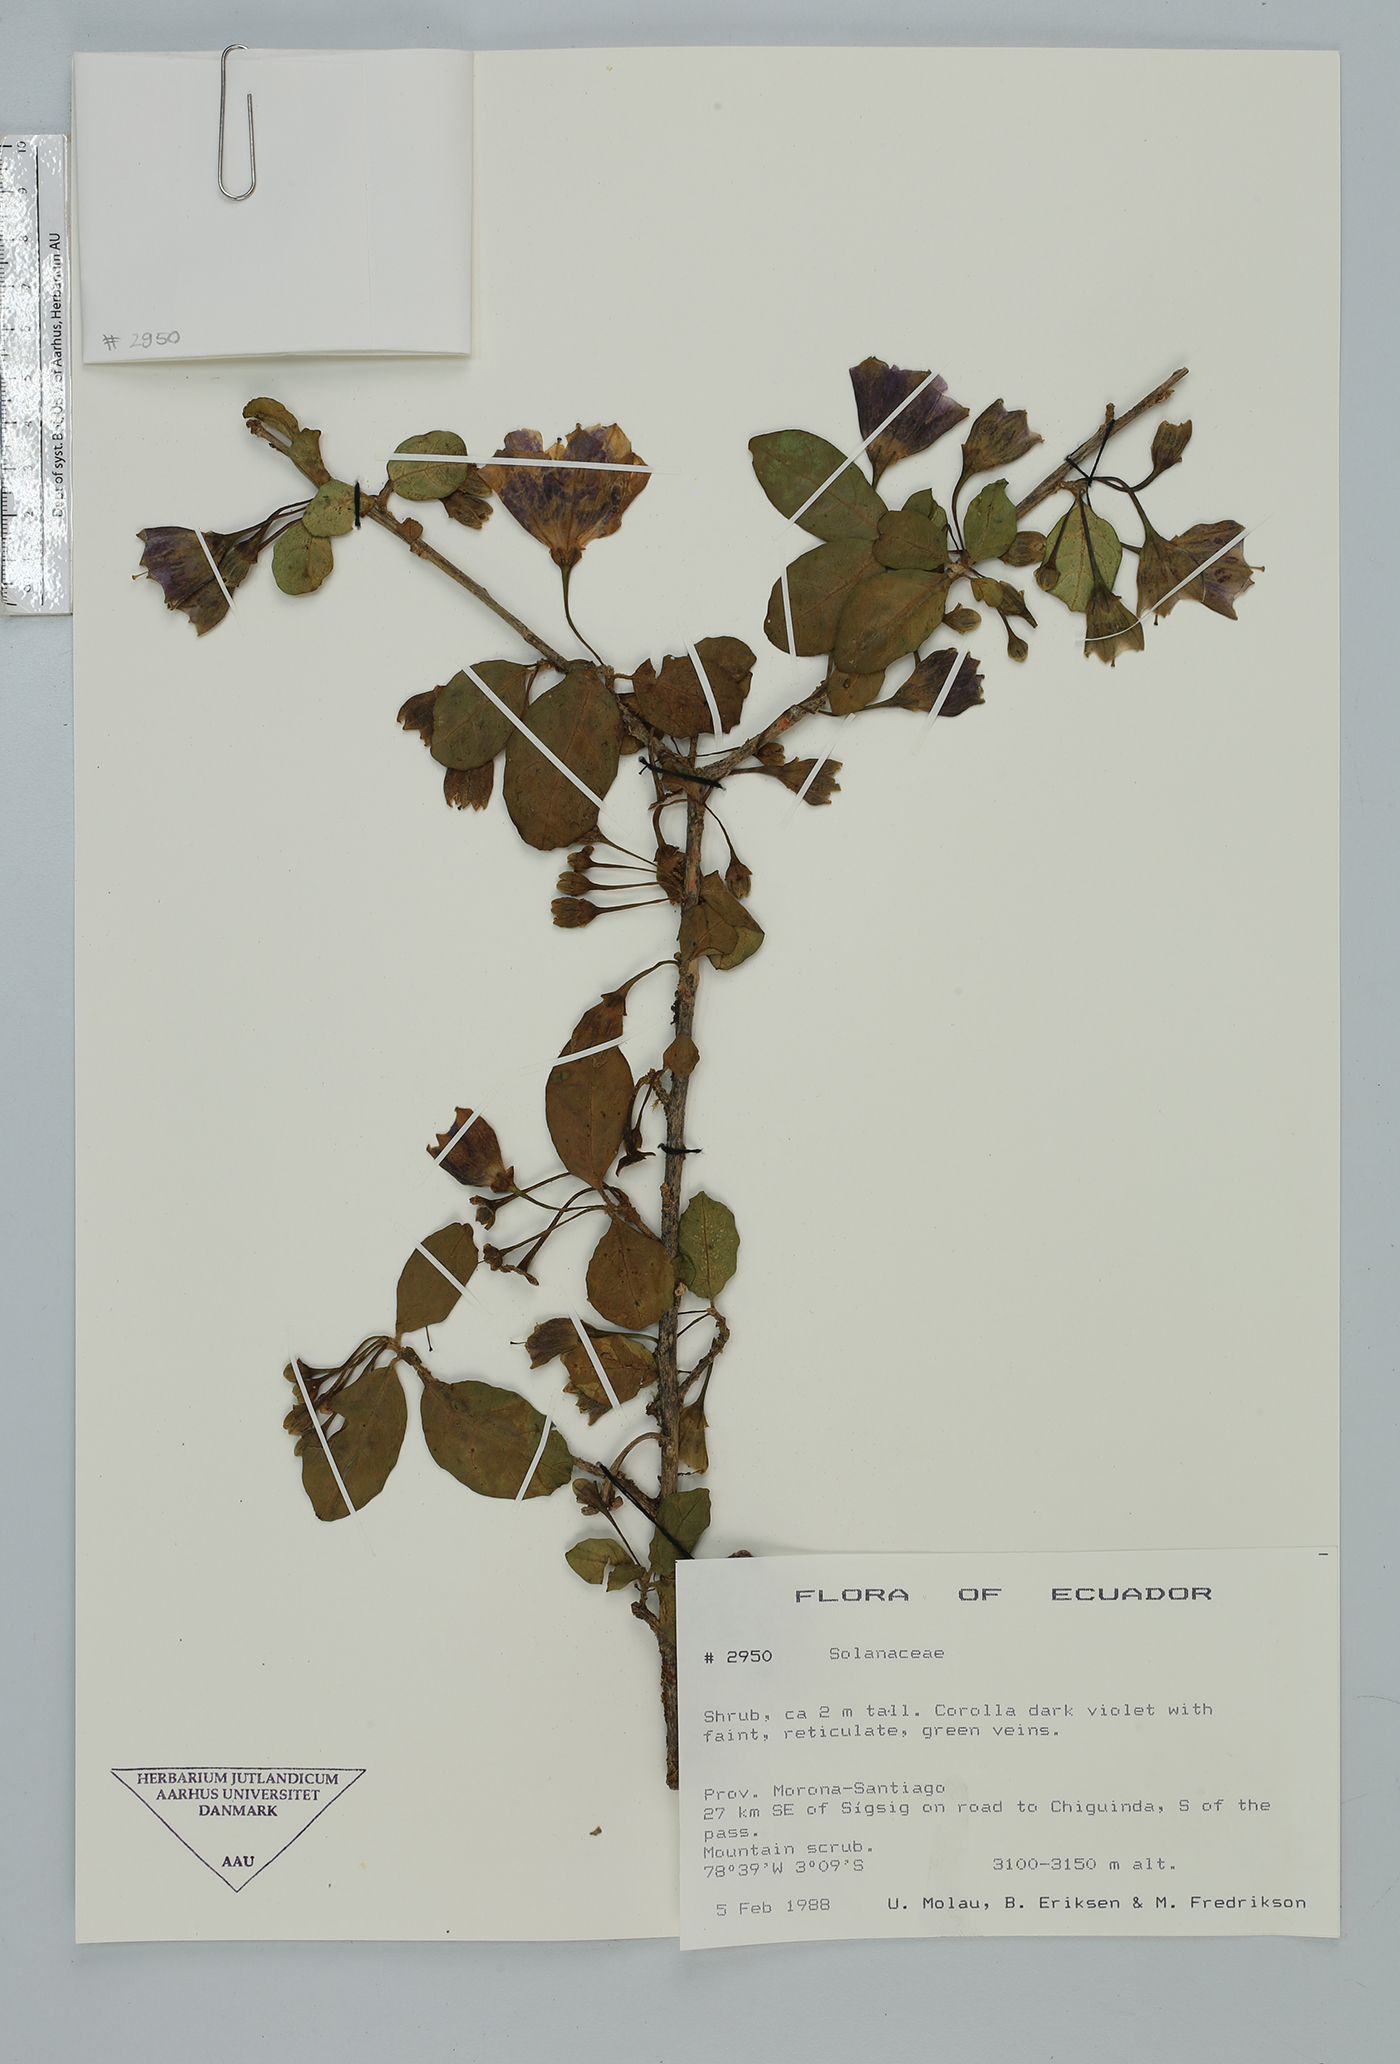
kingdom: Plantae
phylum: Tracheophyta
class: Magnoliopsida
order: Solanales
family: Solanaceae
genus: Saracha
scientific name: Saracha punctata
